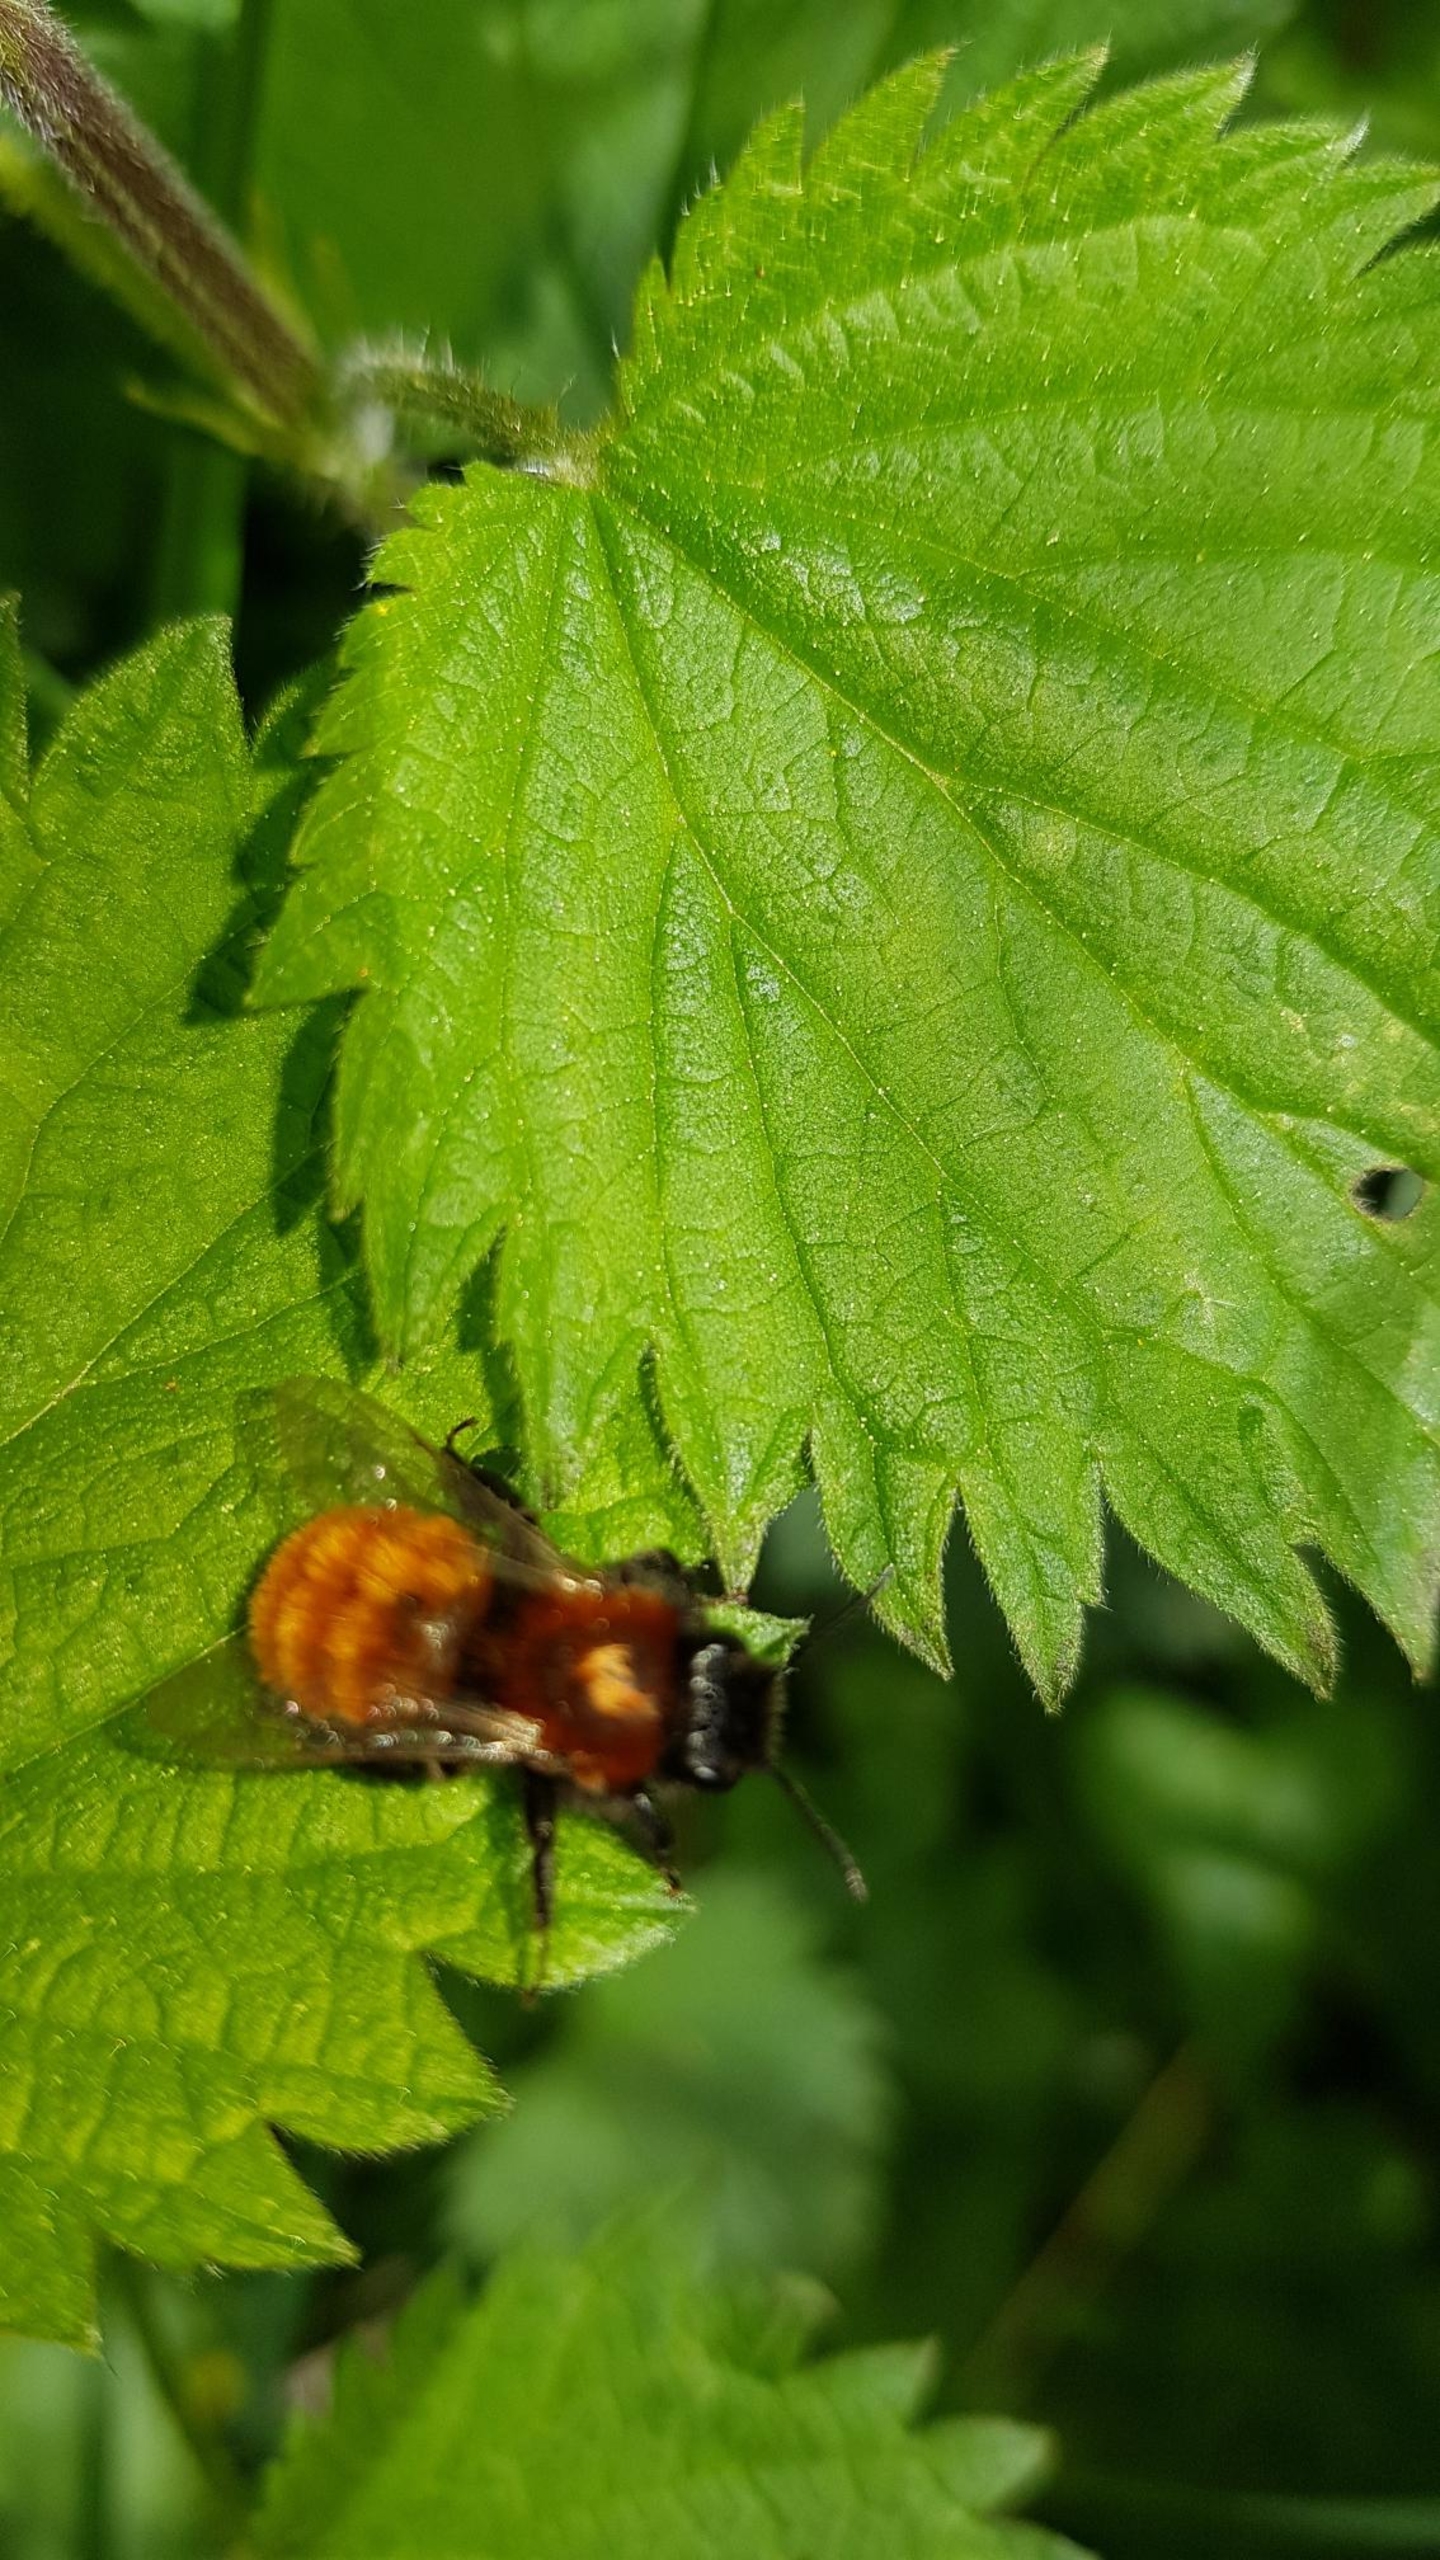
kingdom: Animalia
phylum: Arthropoda
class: Insecta
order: Hymenoptera
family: Andrenidae
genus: Andrena
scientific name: Andrena fulva
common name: Rødpelset jordbi
